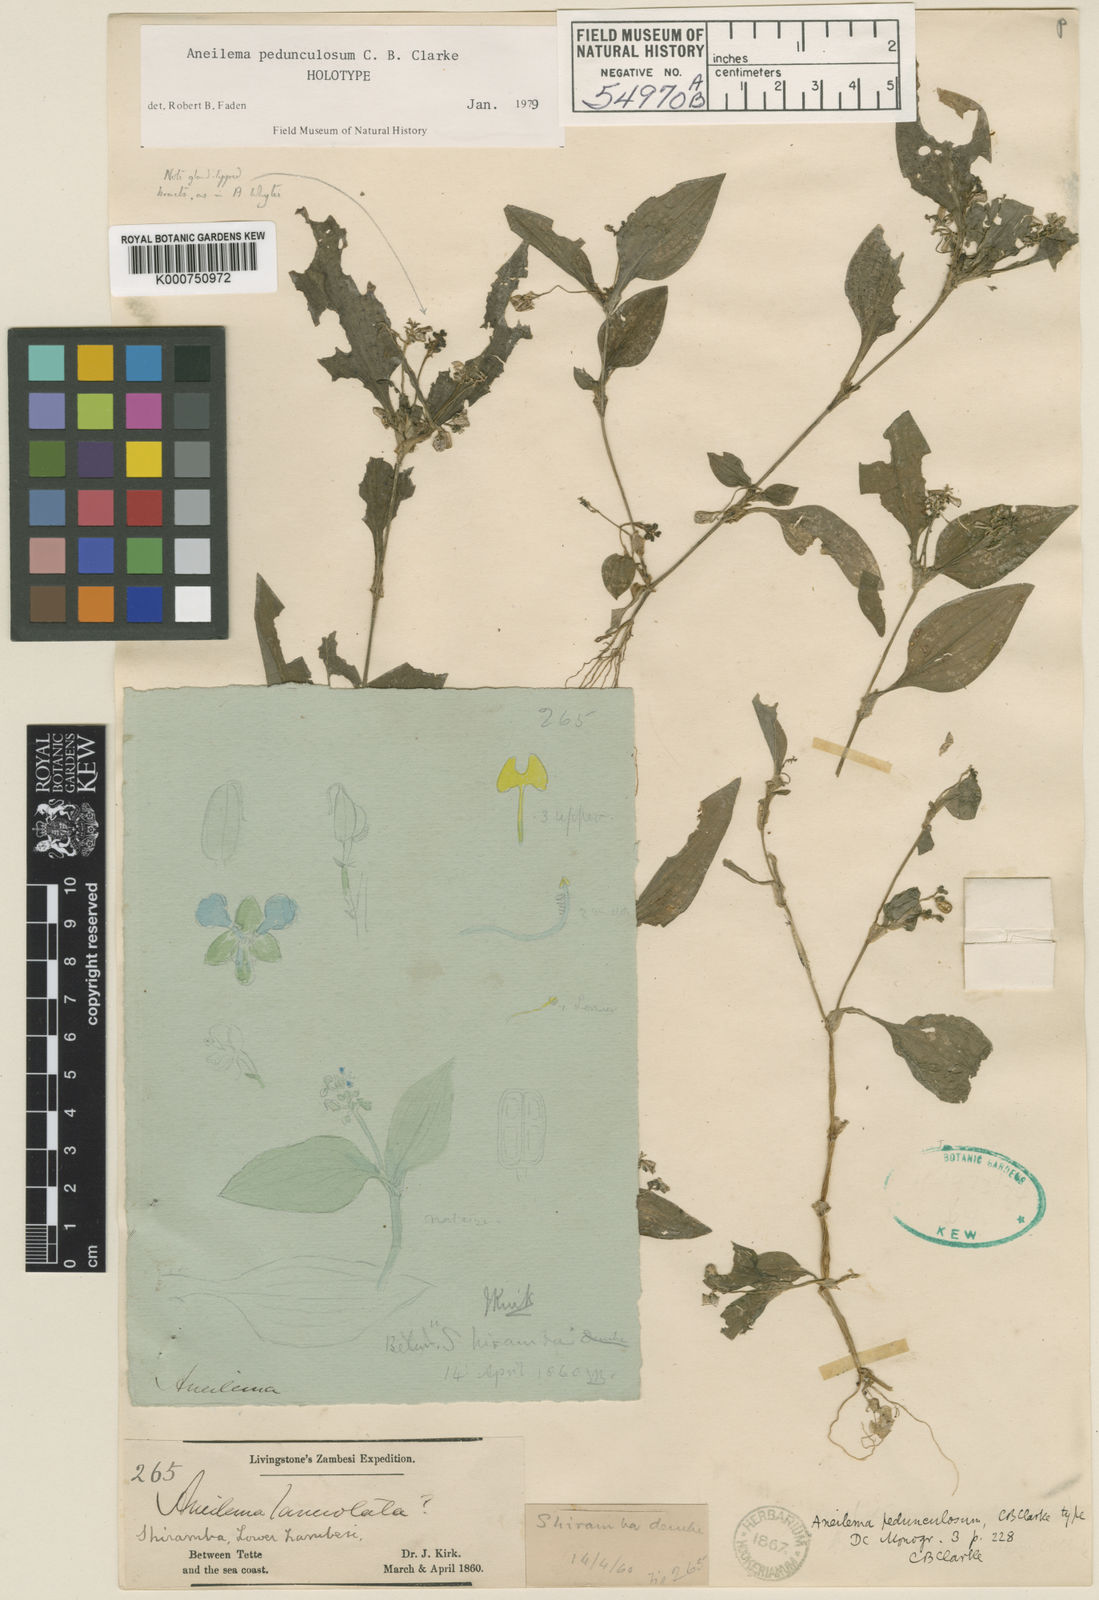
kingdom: Plantae
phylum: Tracheophyta
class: Liliopsida
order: Commelinales
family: Commelinaceae
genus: Aneilema
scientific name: Aneilema pedunculosum
